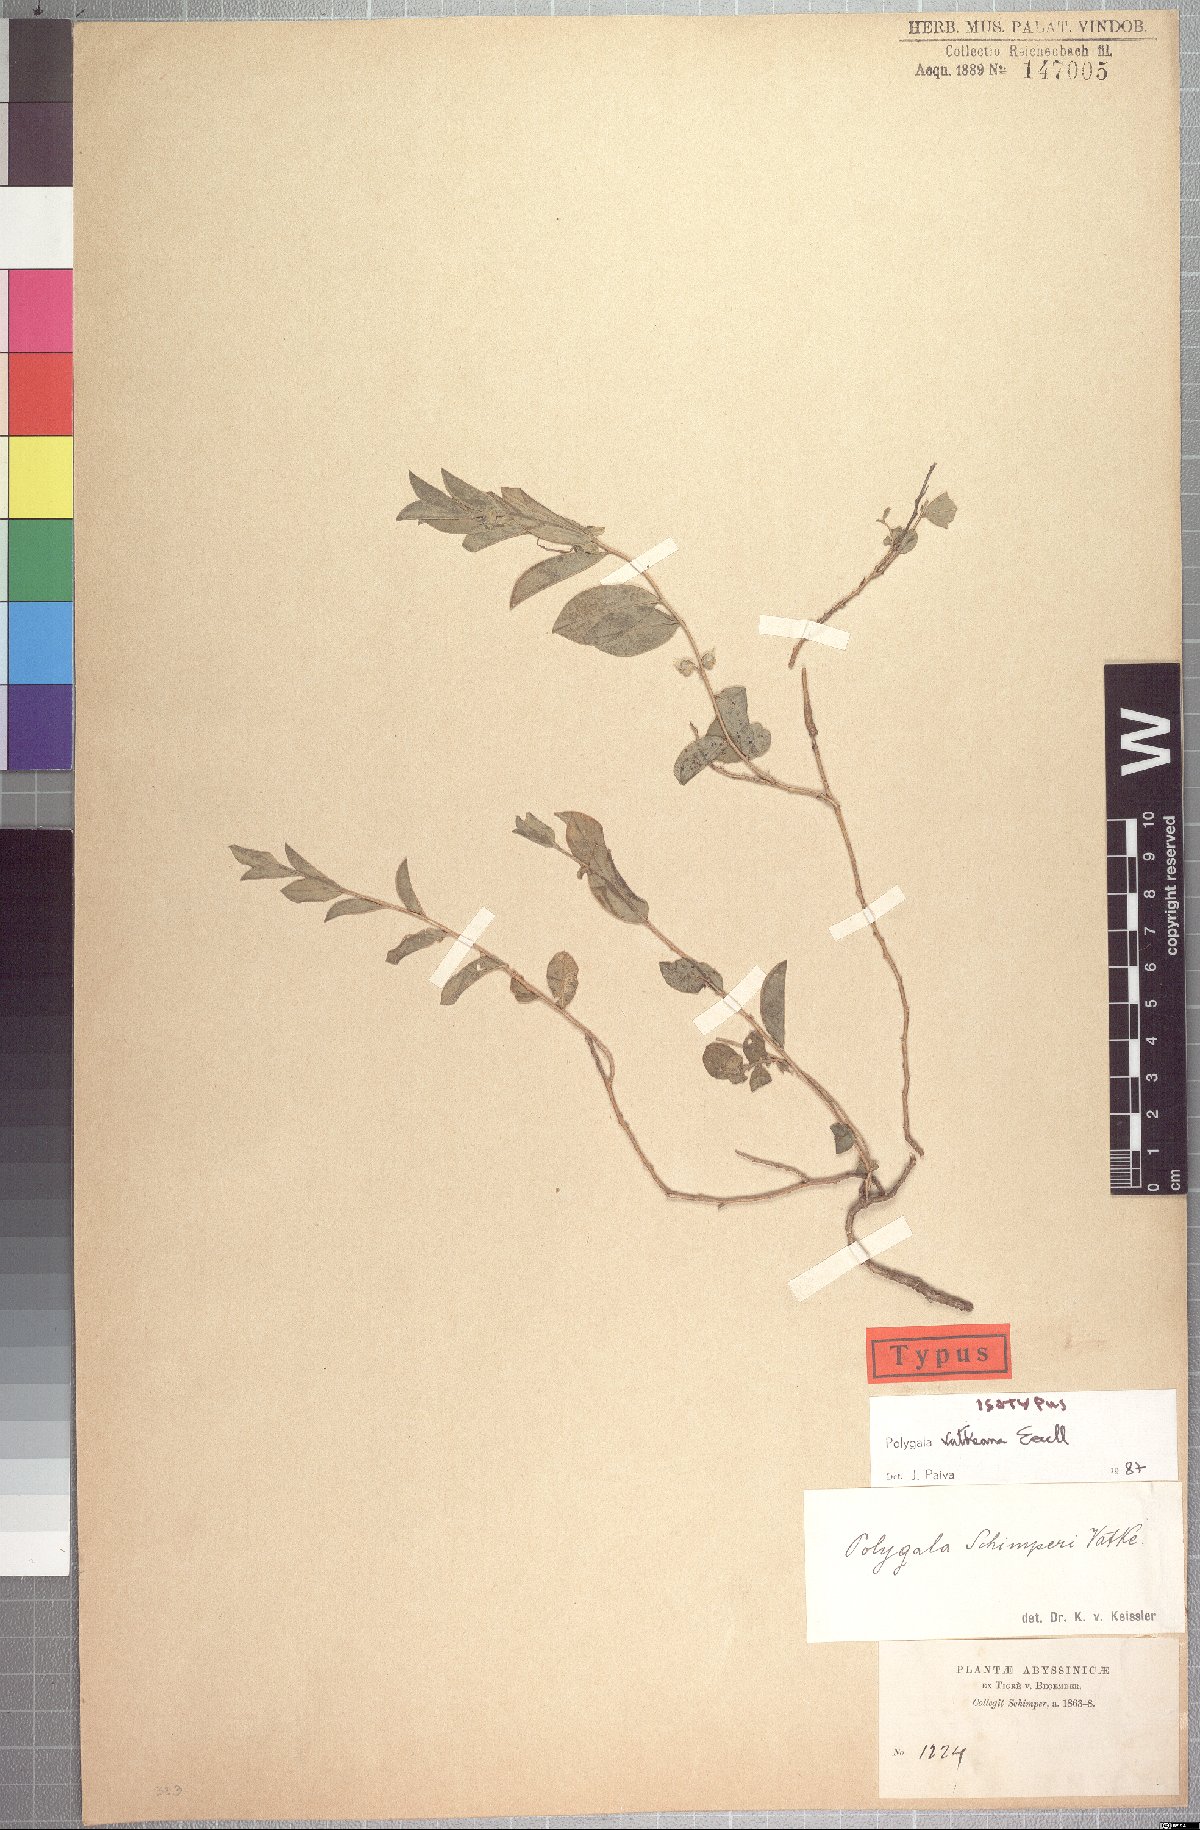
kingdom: Plantae
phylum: Tracheophyta
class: Magnoliopsida
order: Fabales
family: Polygalaceae
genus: Polygala
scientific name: Polygala vatkeana
